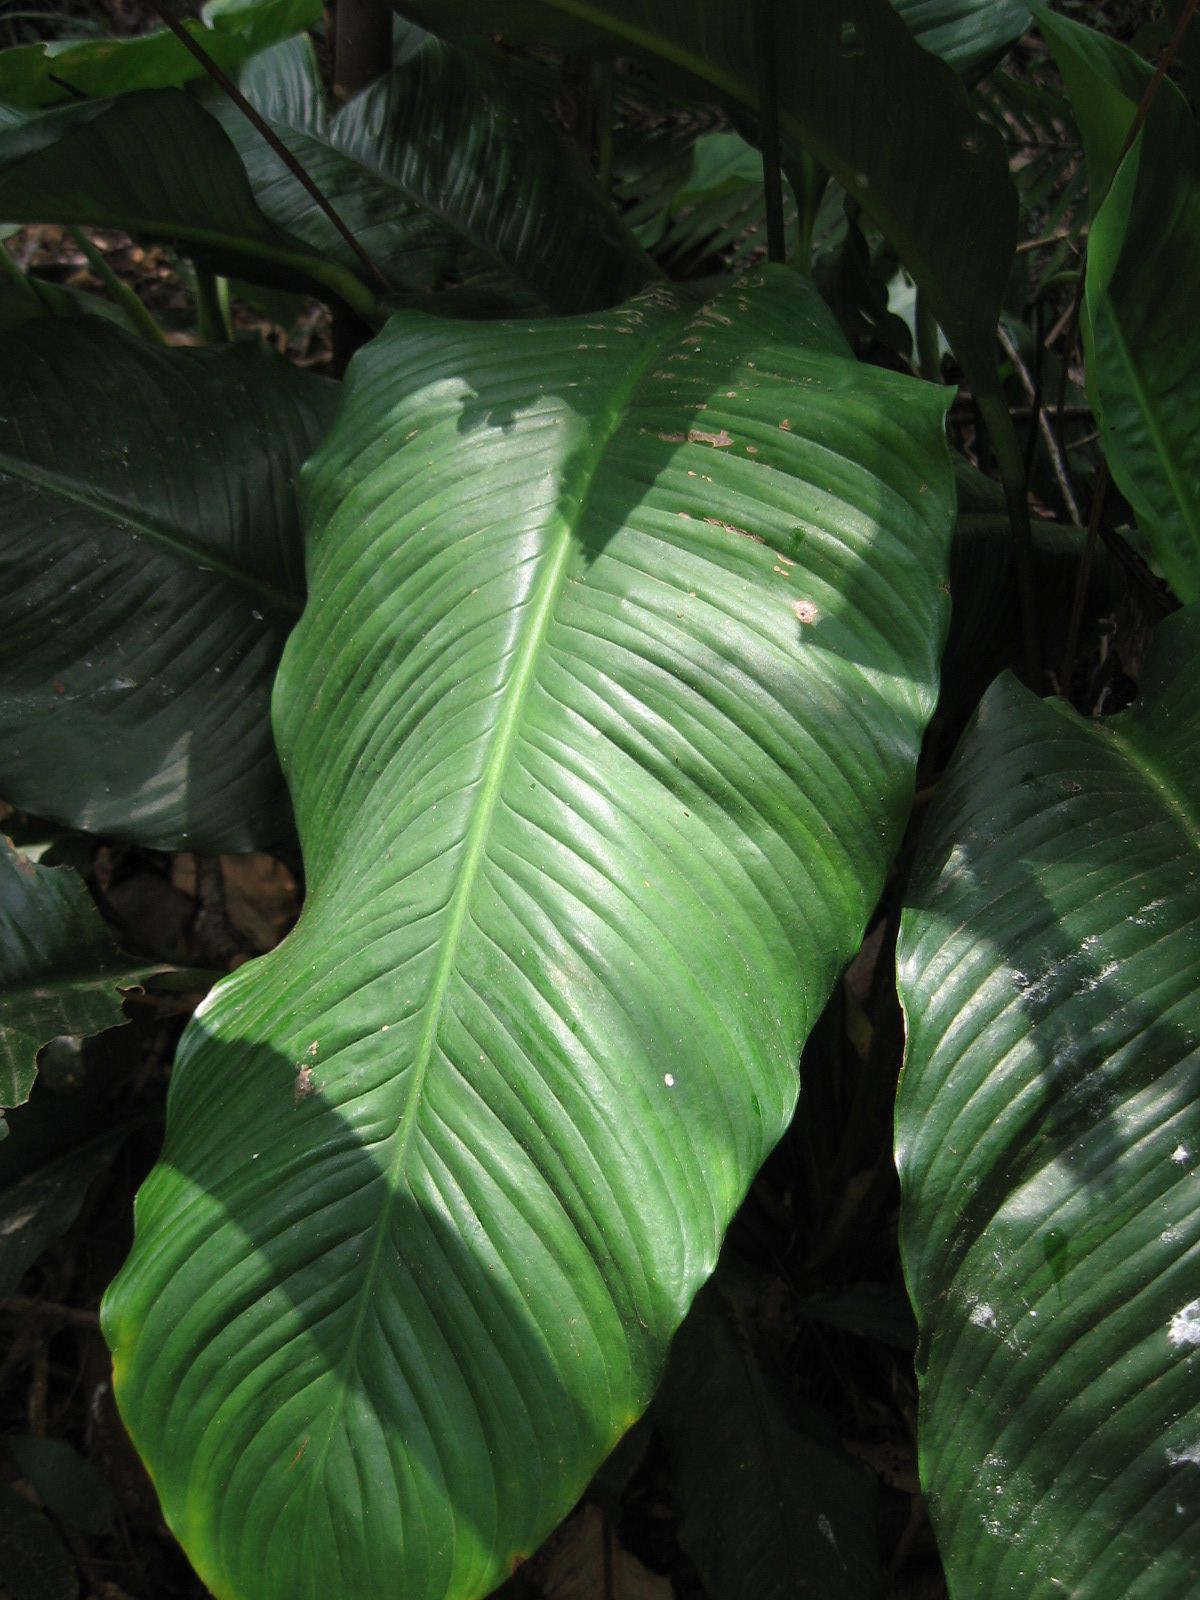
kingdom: Plantae
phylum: Tracheophyta
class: Liliopsida
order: Alismatales
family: Araceae
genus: Spathiphyllum
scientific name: Spathiphyllum matudae
